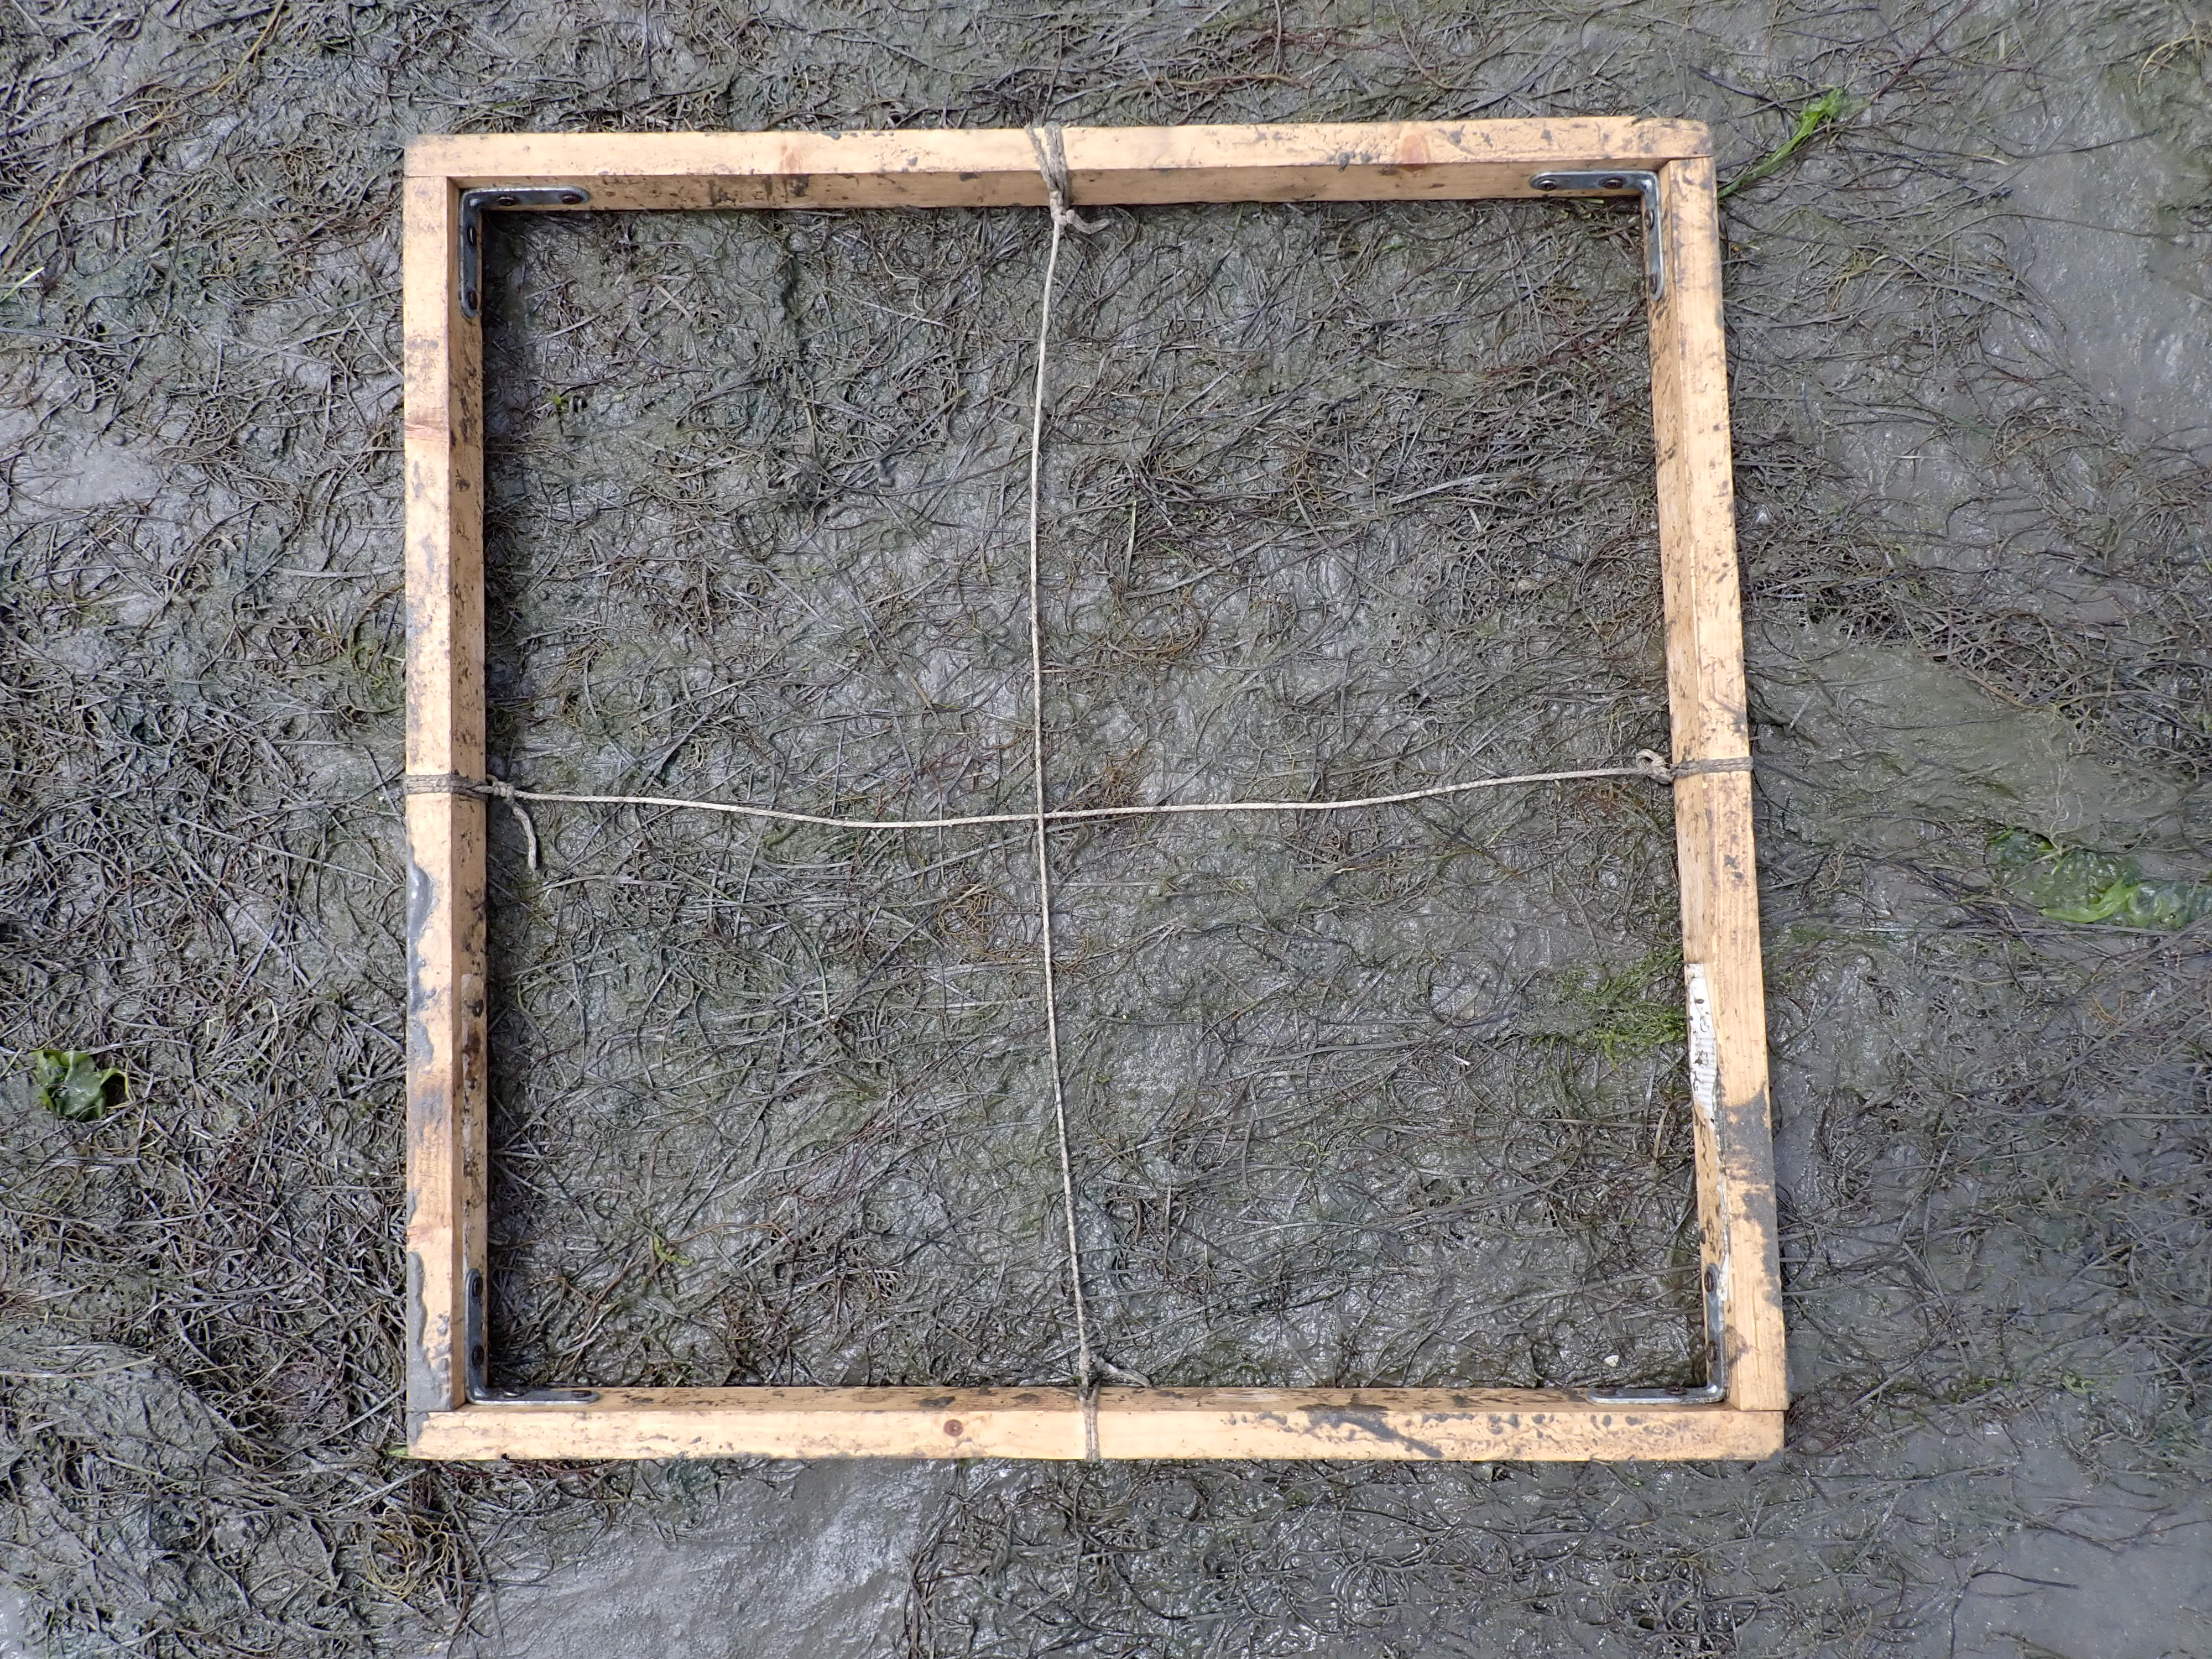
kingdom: Plantae
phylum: Rhodophyta
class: Florideophyceae
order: Gracilariales
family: Gracilariaceae
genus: Gracilaria
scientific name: Gracilaria vermiculophylla
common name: Algae
